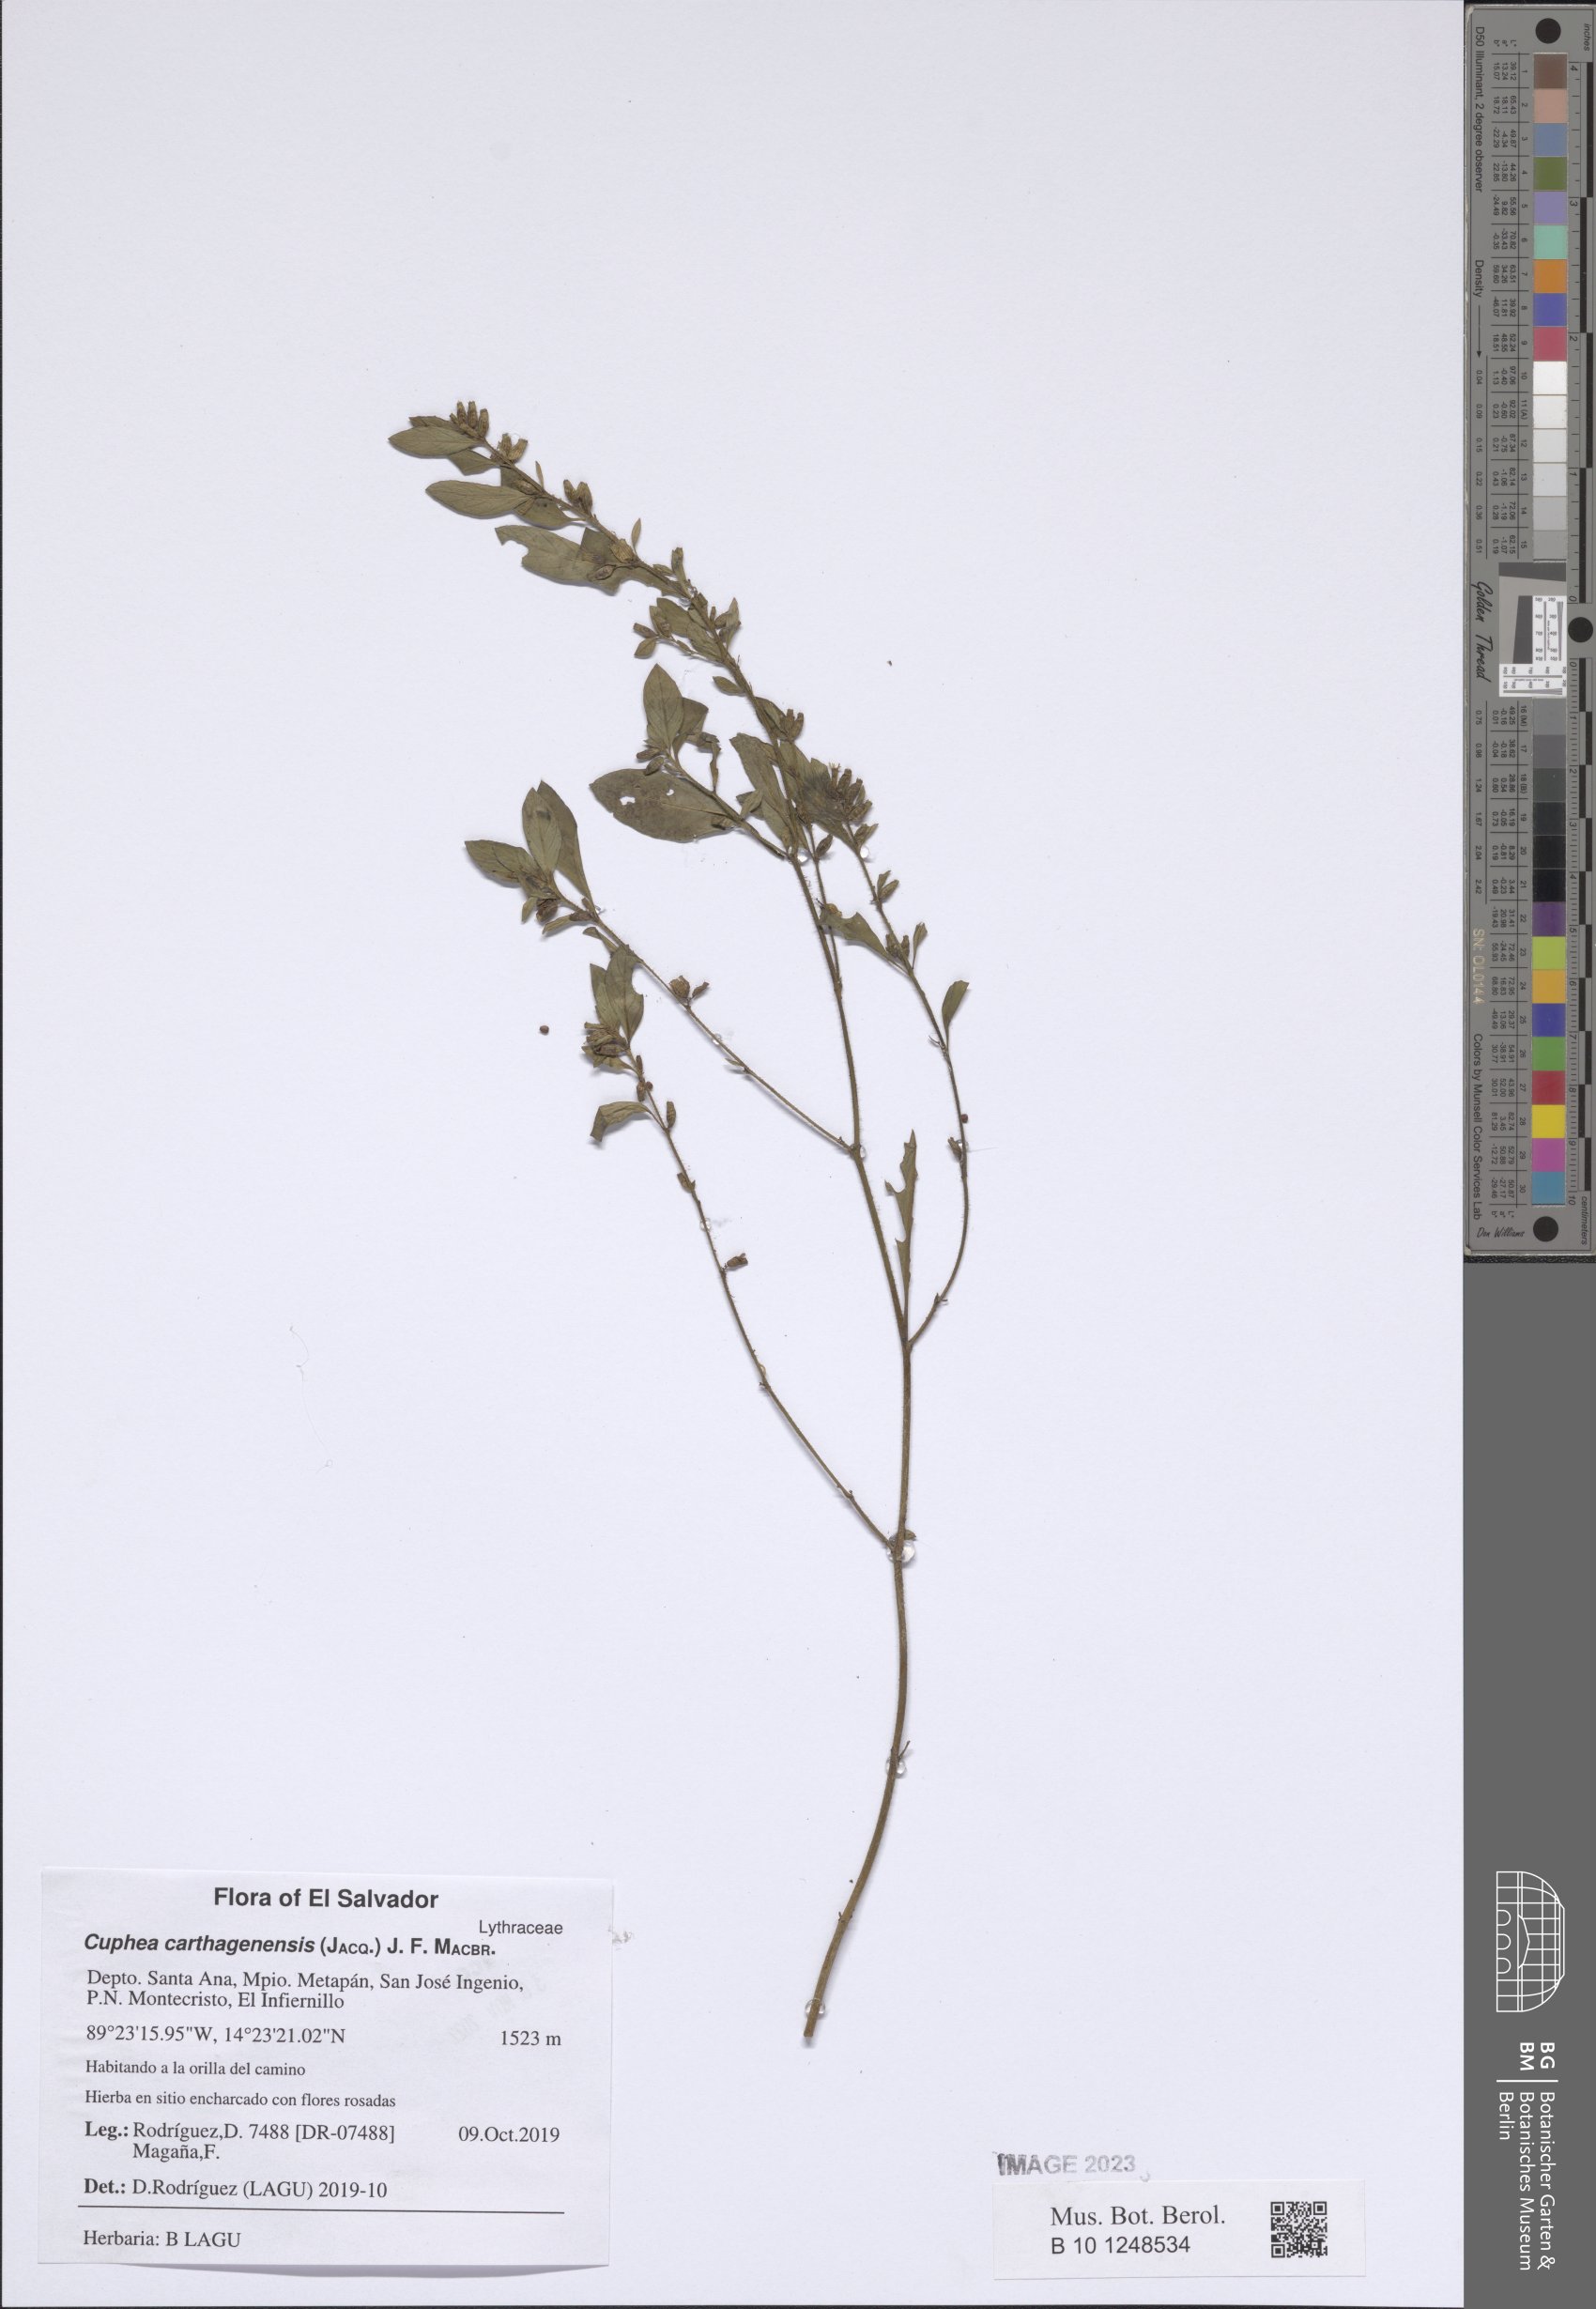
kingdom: Plantae
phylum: Tracheophyta
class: Magnoliopsida
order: Myrtales
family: Lythraceae
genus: Cuphea
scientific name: Cuphea carthagenensis
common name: Colombian waxweed
